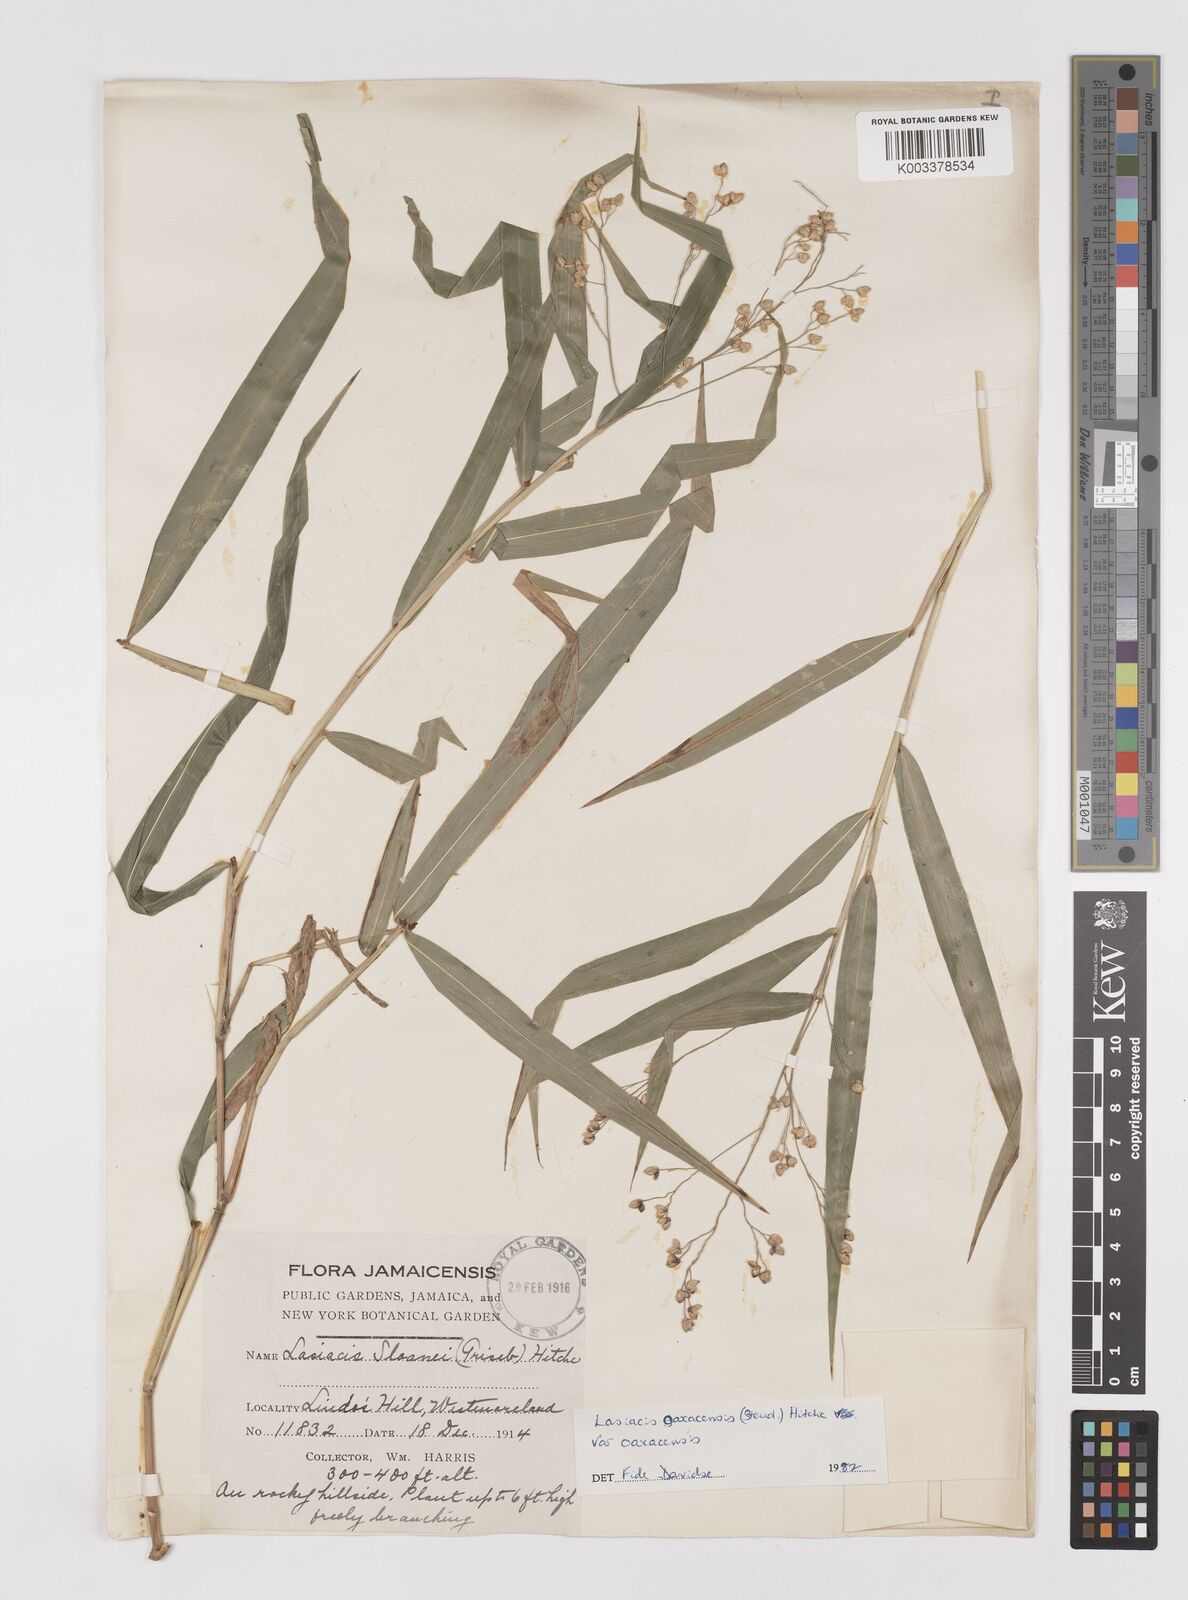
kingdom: Plantae
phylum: Tracheophyta
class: Liliopsida
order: Poales
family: Poaceae
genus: Lasiacis
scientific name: Lasiacis oaxacensis
